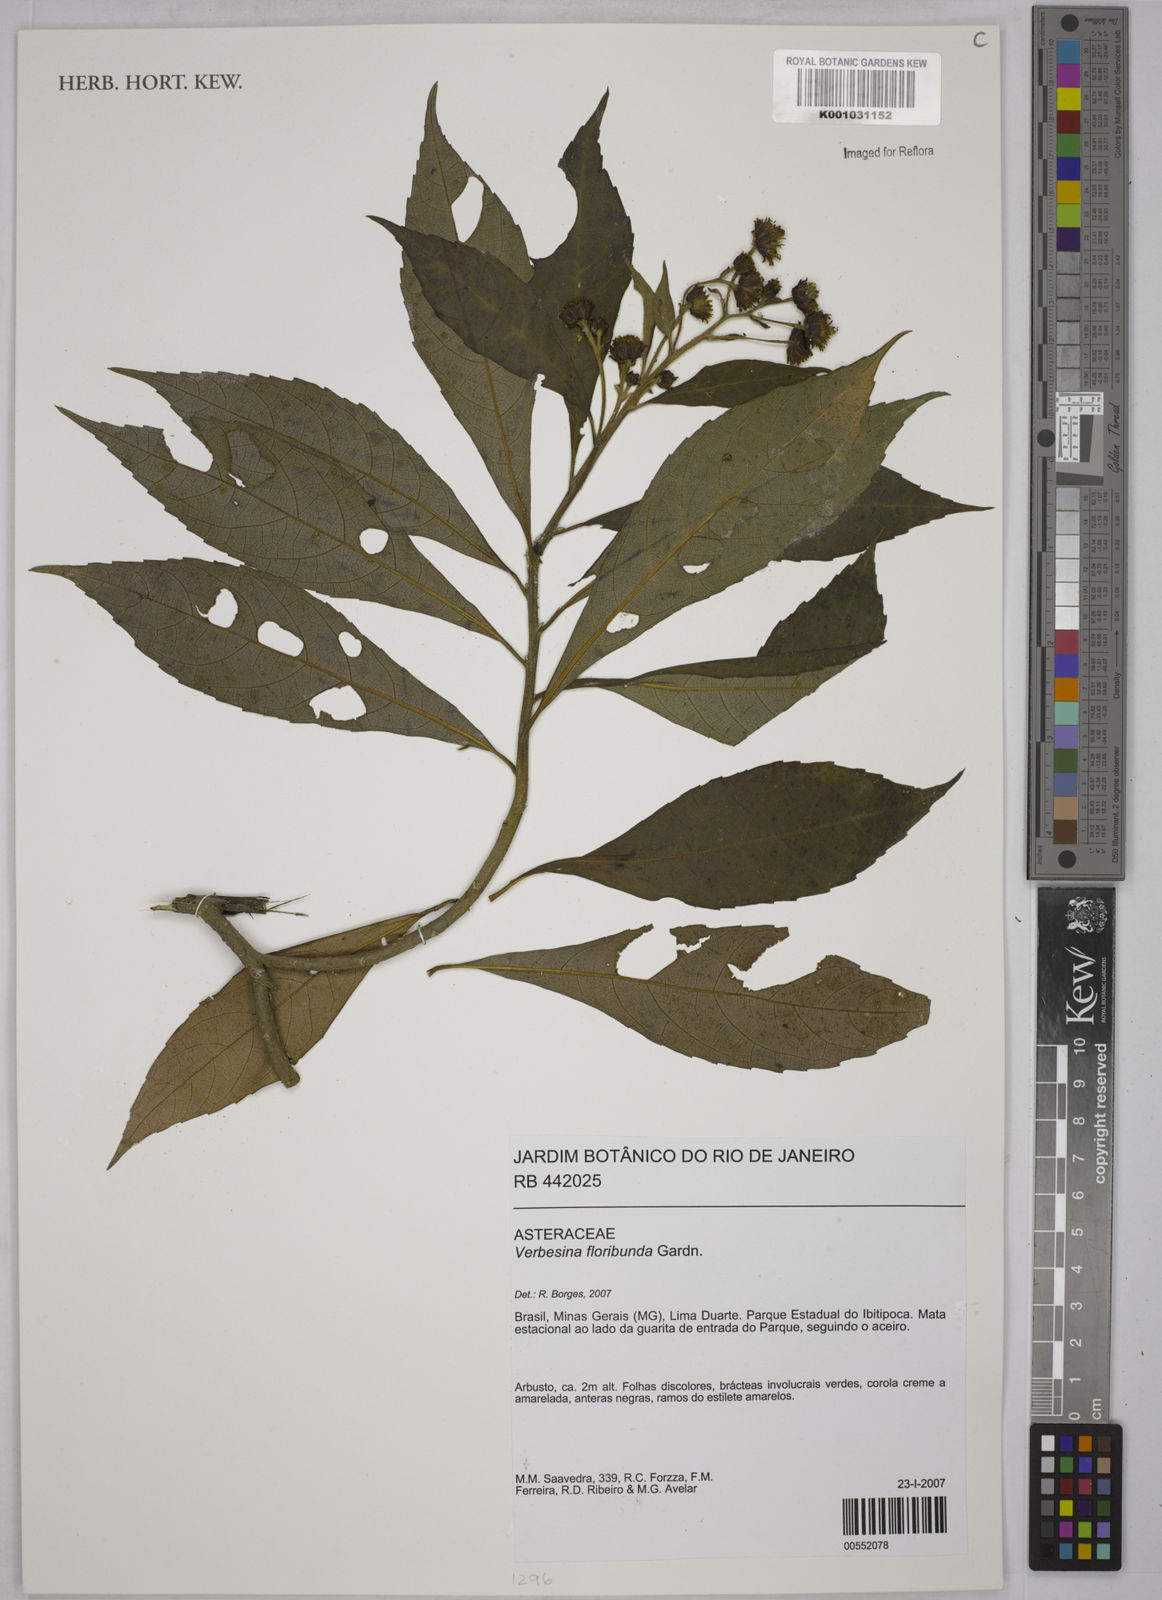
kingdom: Plantae
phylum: Tracheophyta
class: Magnoliopsida
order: Asterales
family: Asteraceae
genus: Verbesina
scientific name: Verbesina floribunda
